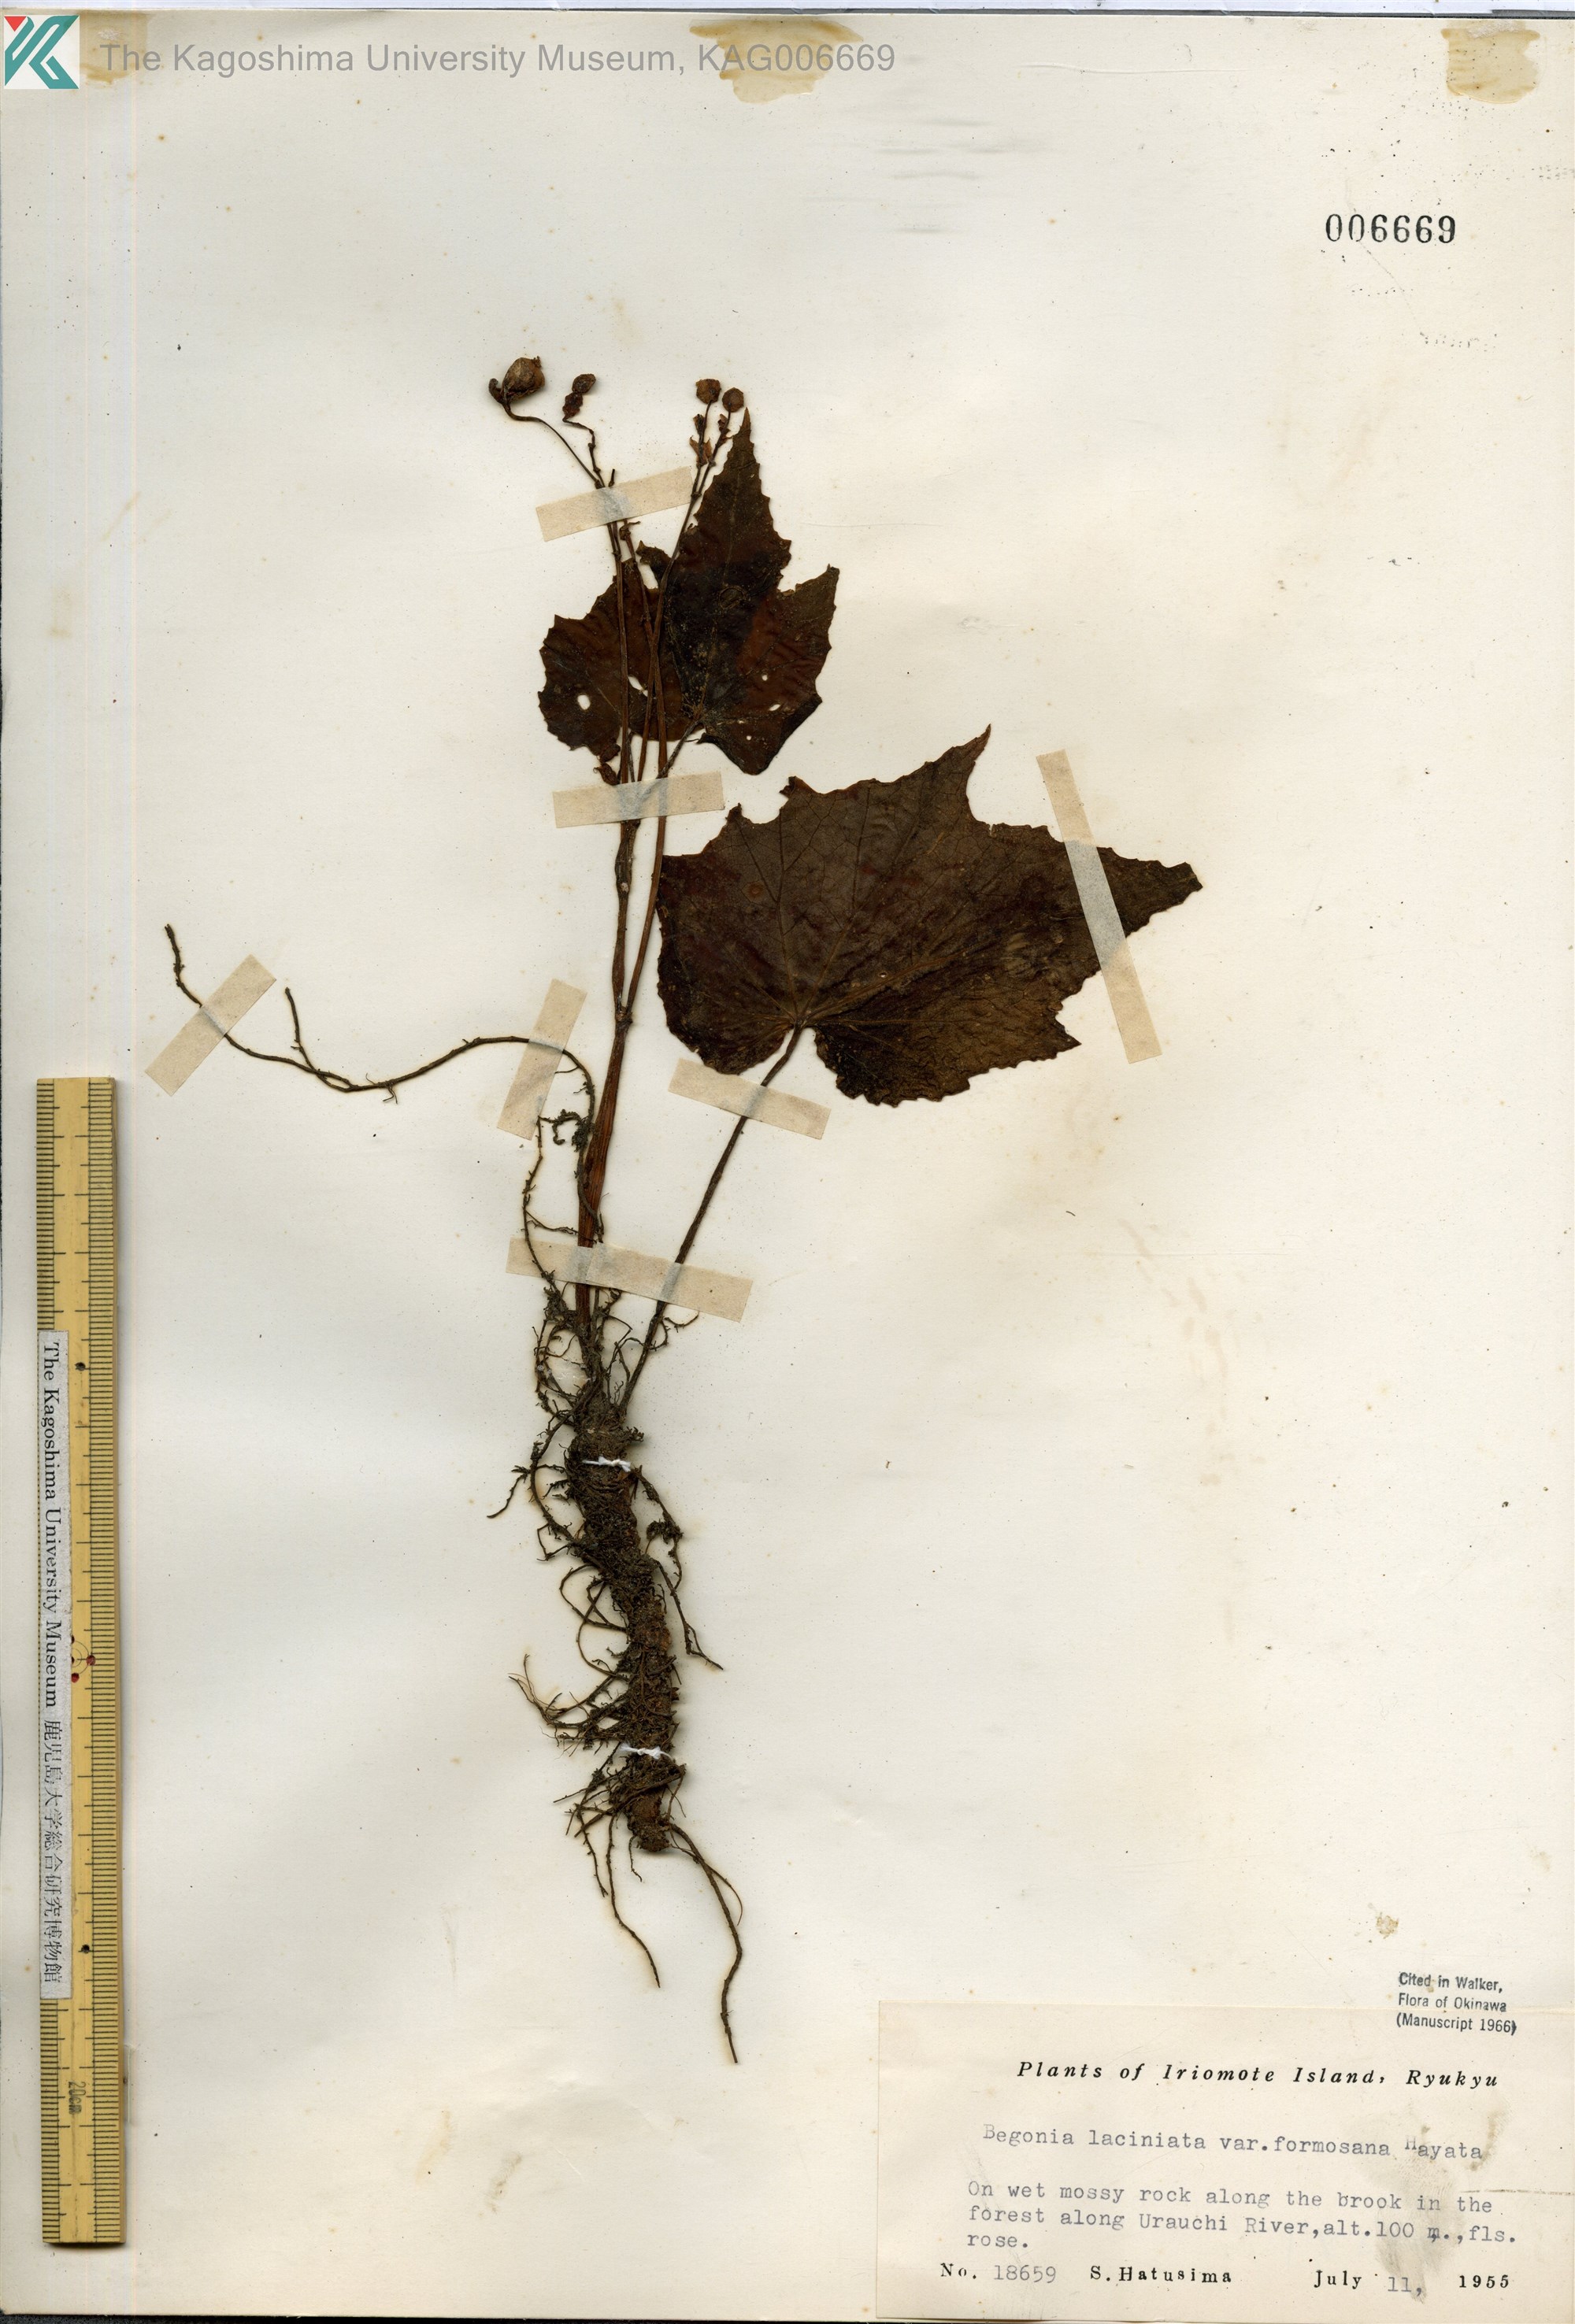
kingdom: Plantae
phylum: Tracheophyta
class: Magnoliopsida
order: Cucurbitales
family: Begoniaceae
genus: Begonia
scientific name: Begonia palmata
